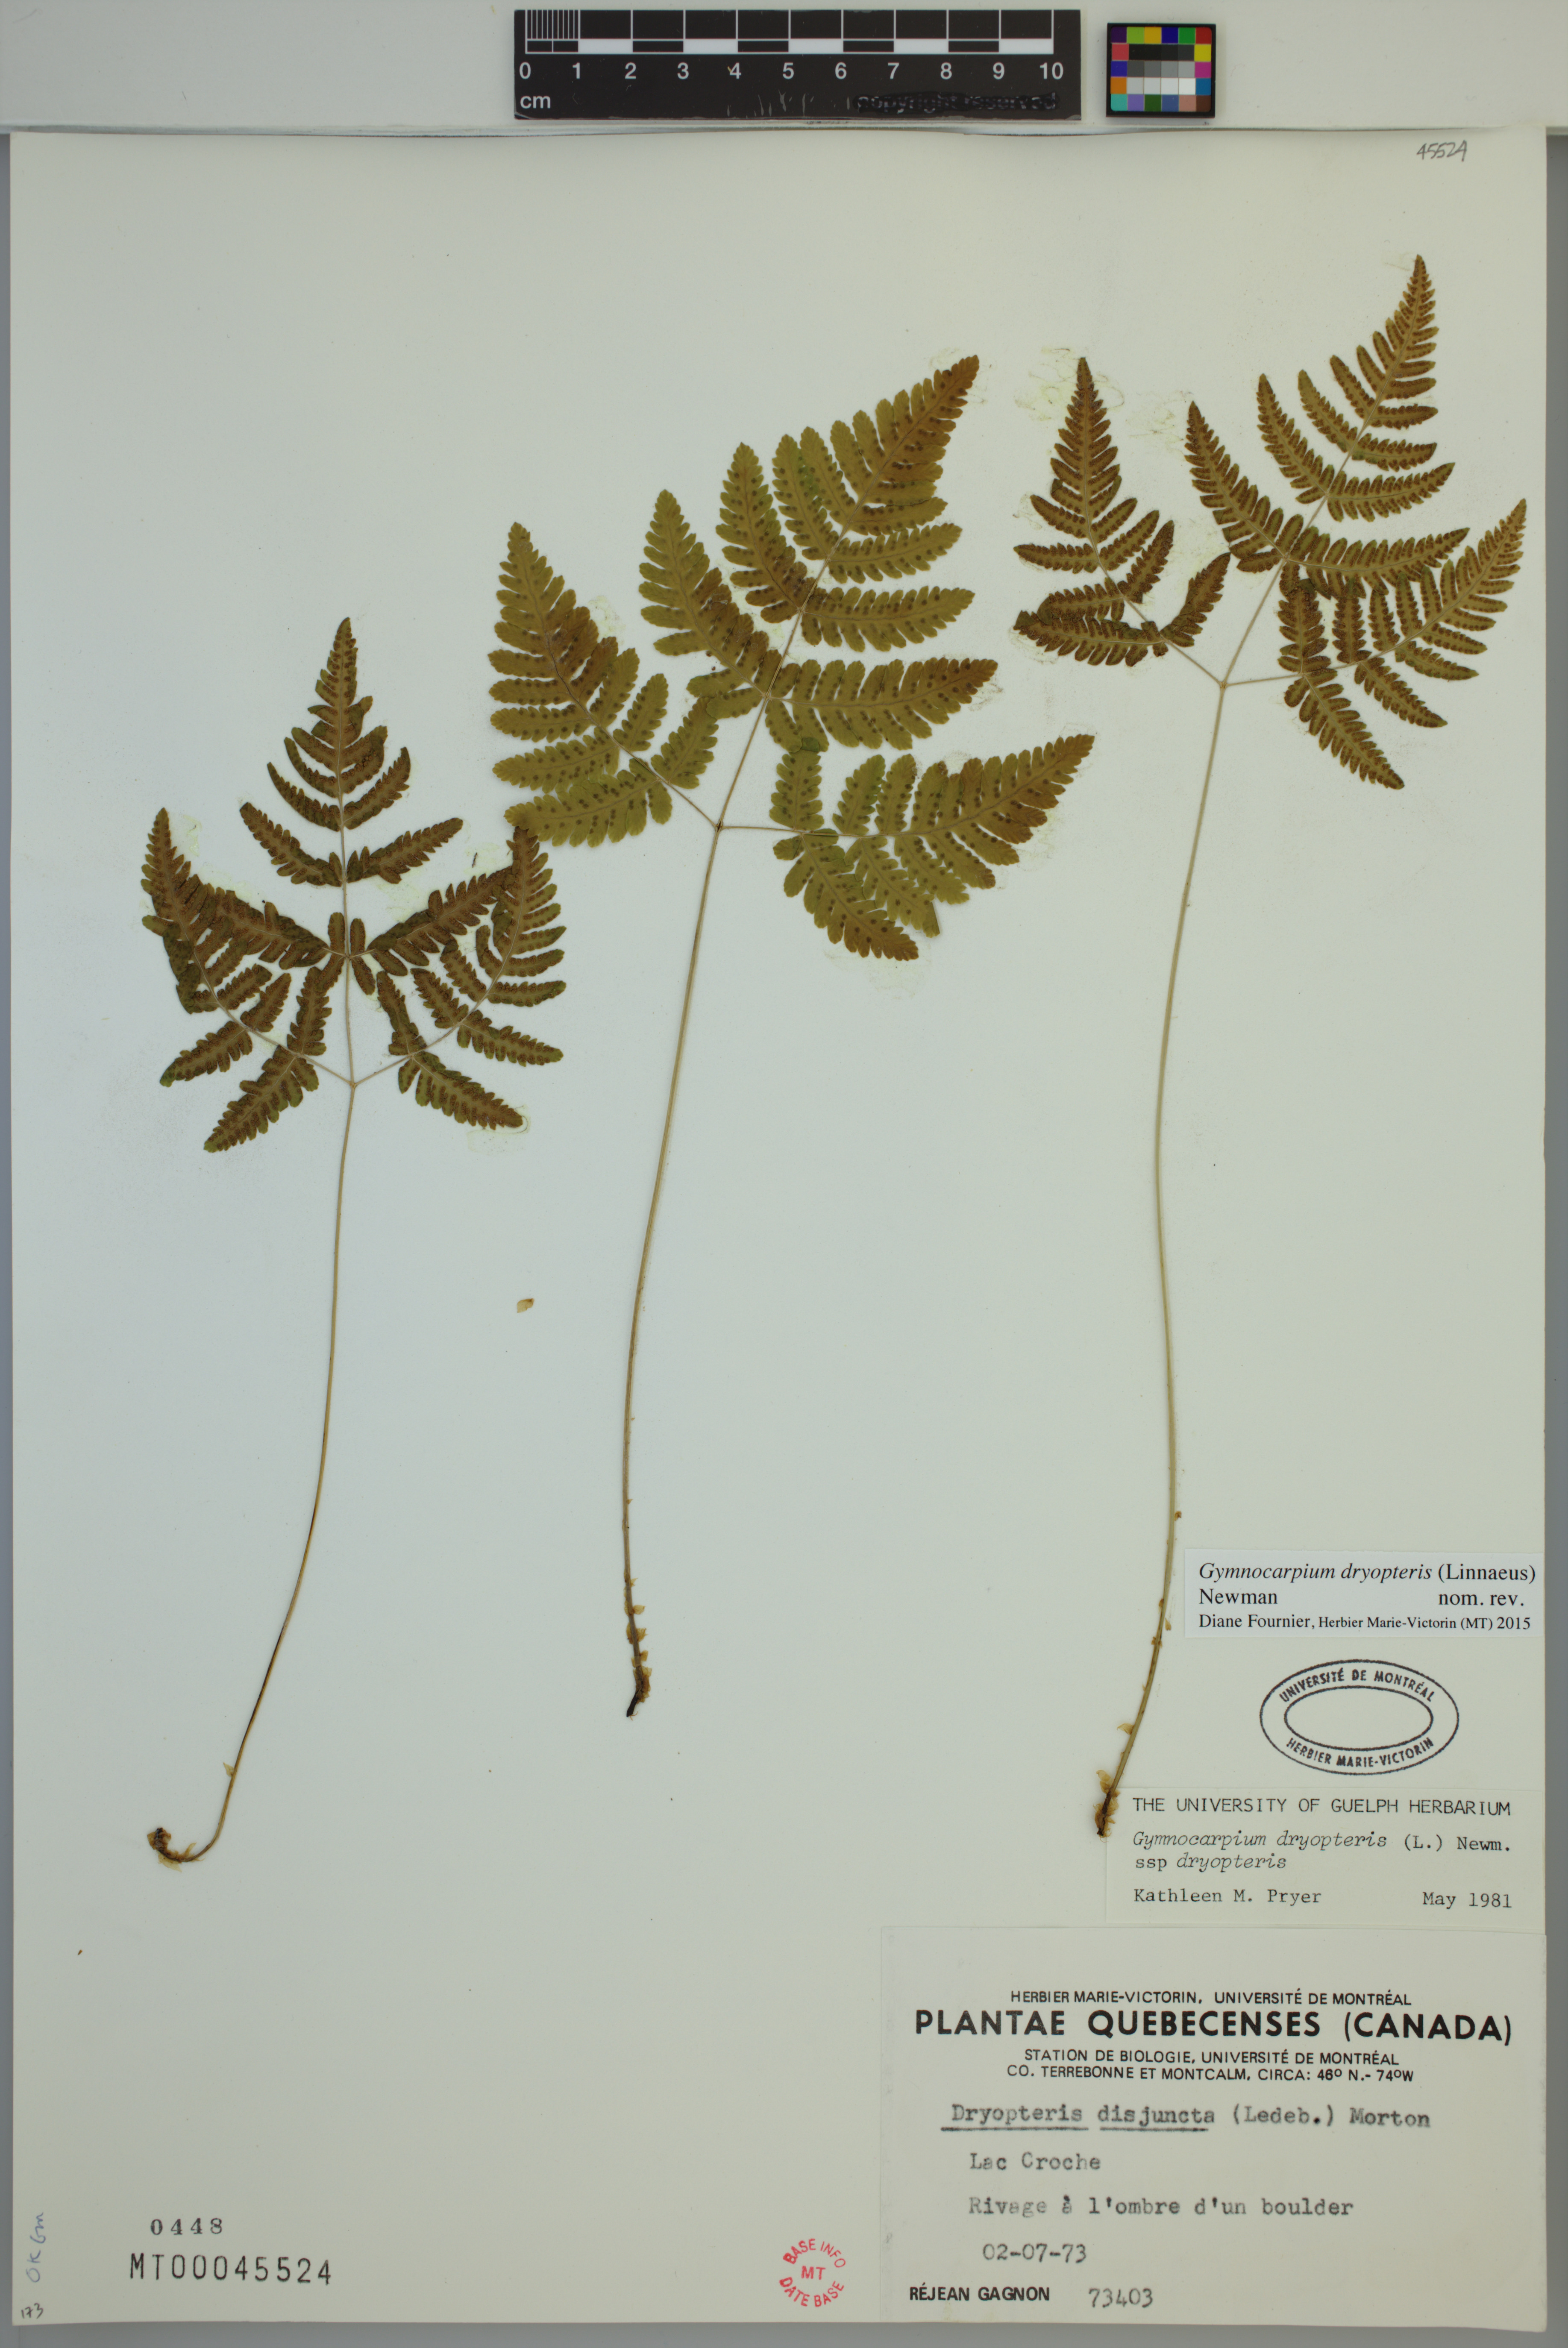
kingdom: Plantae
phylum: Tracheophyta
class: Polypodiopsida
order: Polypodiales
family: Cystopteridaceae
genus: Gymnocarpium
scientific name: Gymnocarpium dryopteris
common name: Oak fern
